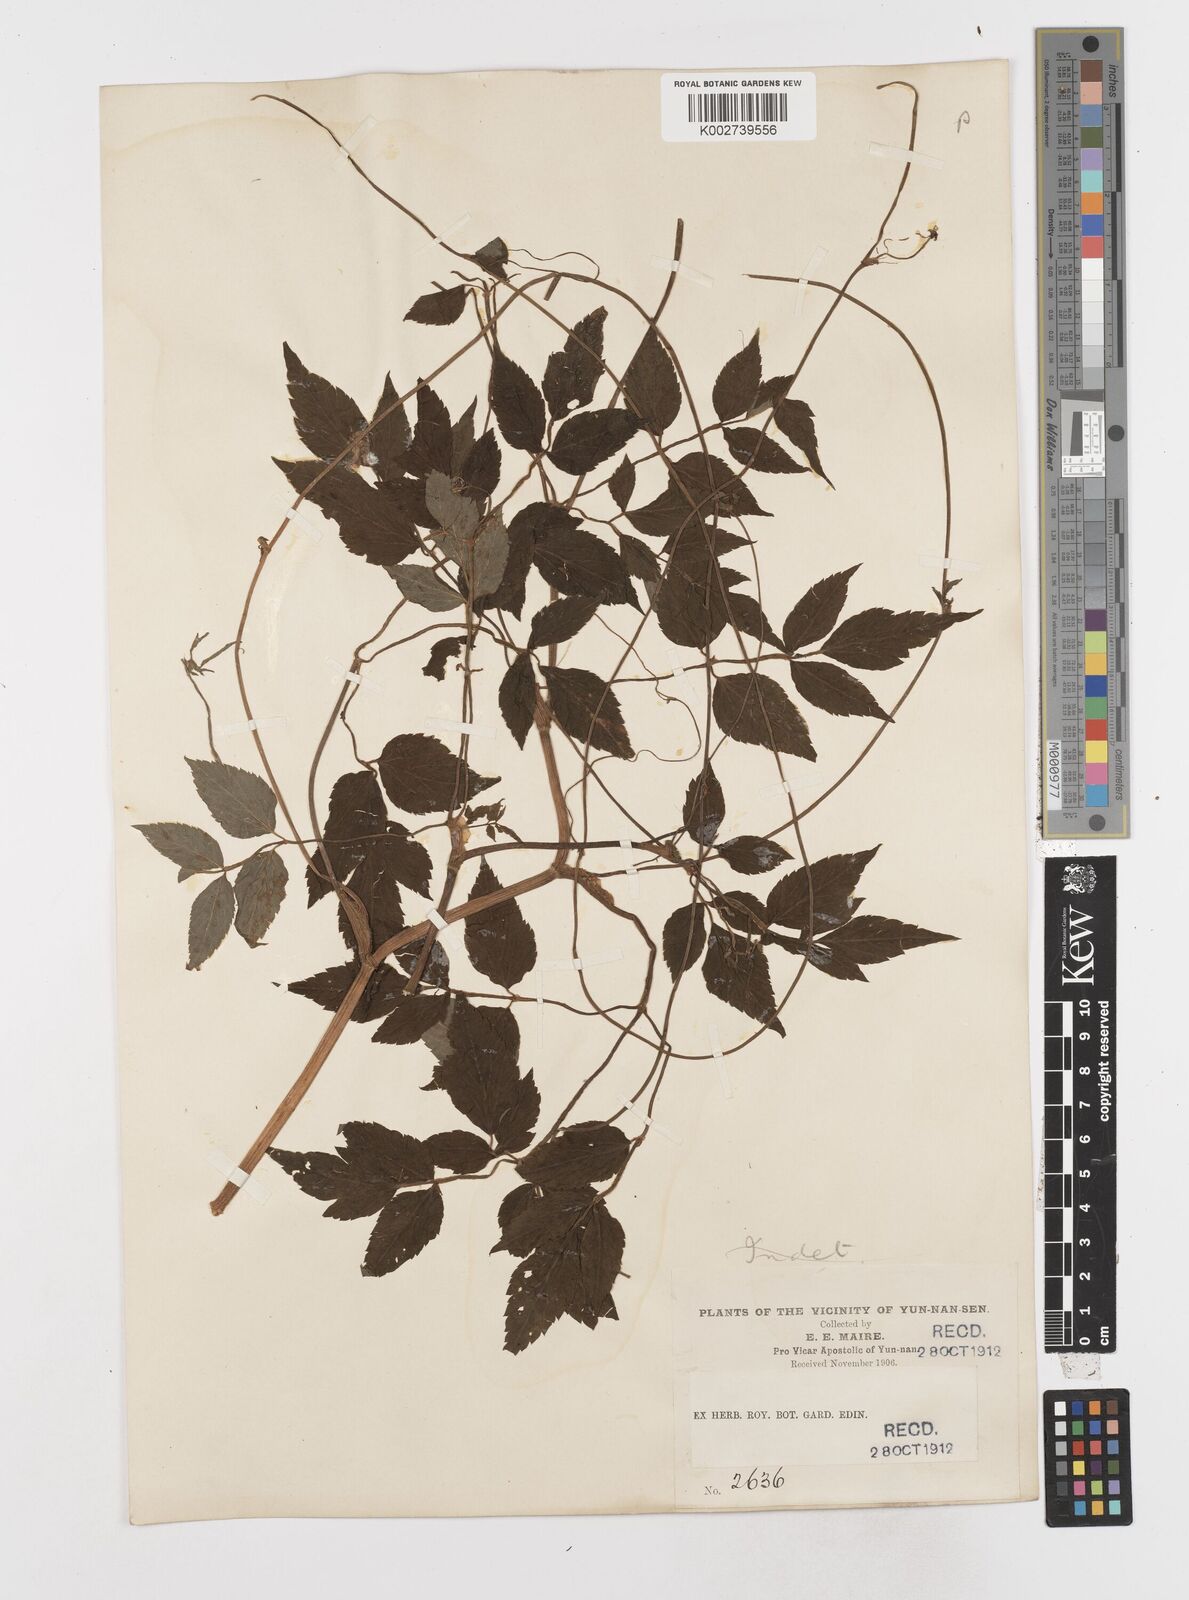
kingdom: Plantae
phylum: Tracheophyta
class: Magnoliopsida
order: Apiales
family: Apiaceae
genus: Oenanthe
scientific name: Oenanthe javanica
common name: Java water-dropwort
